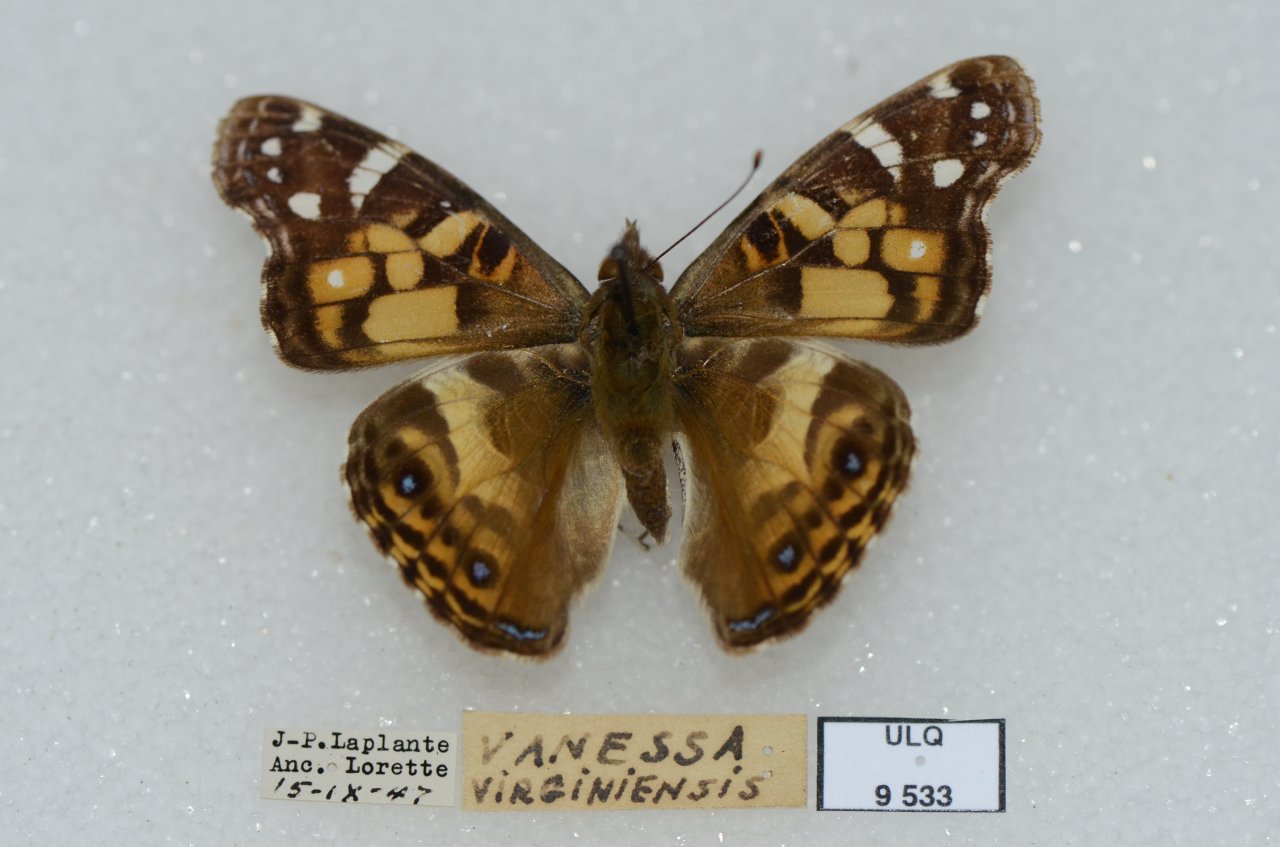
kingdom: Animalia
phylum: Arthropoda
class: Insecta
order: Lepidoptera
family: Nymphalidae
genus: Vanessa
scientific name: Vanessa virginiensis
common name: American Lady
